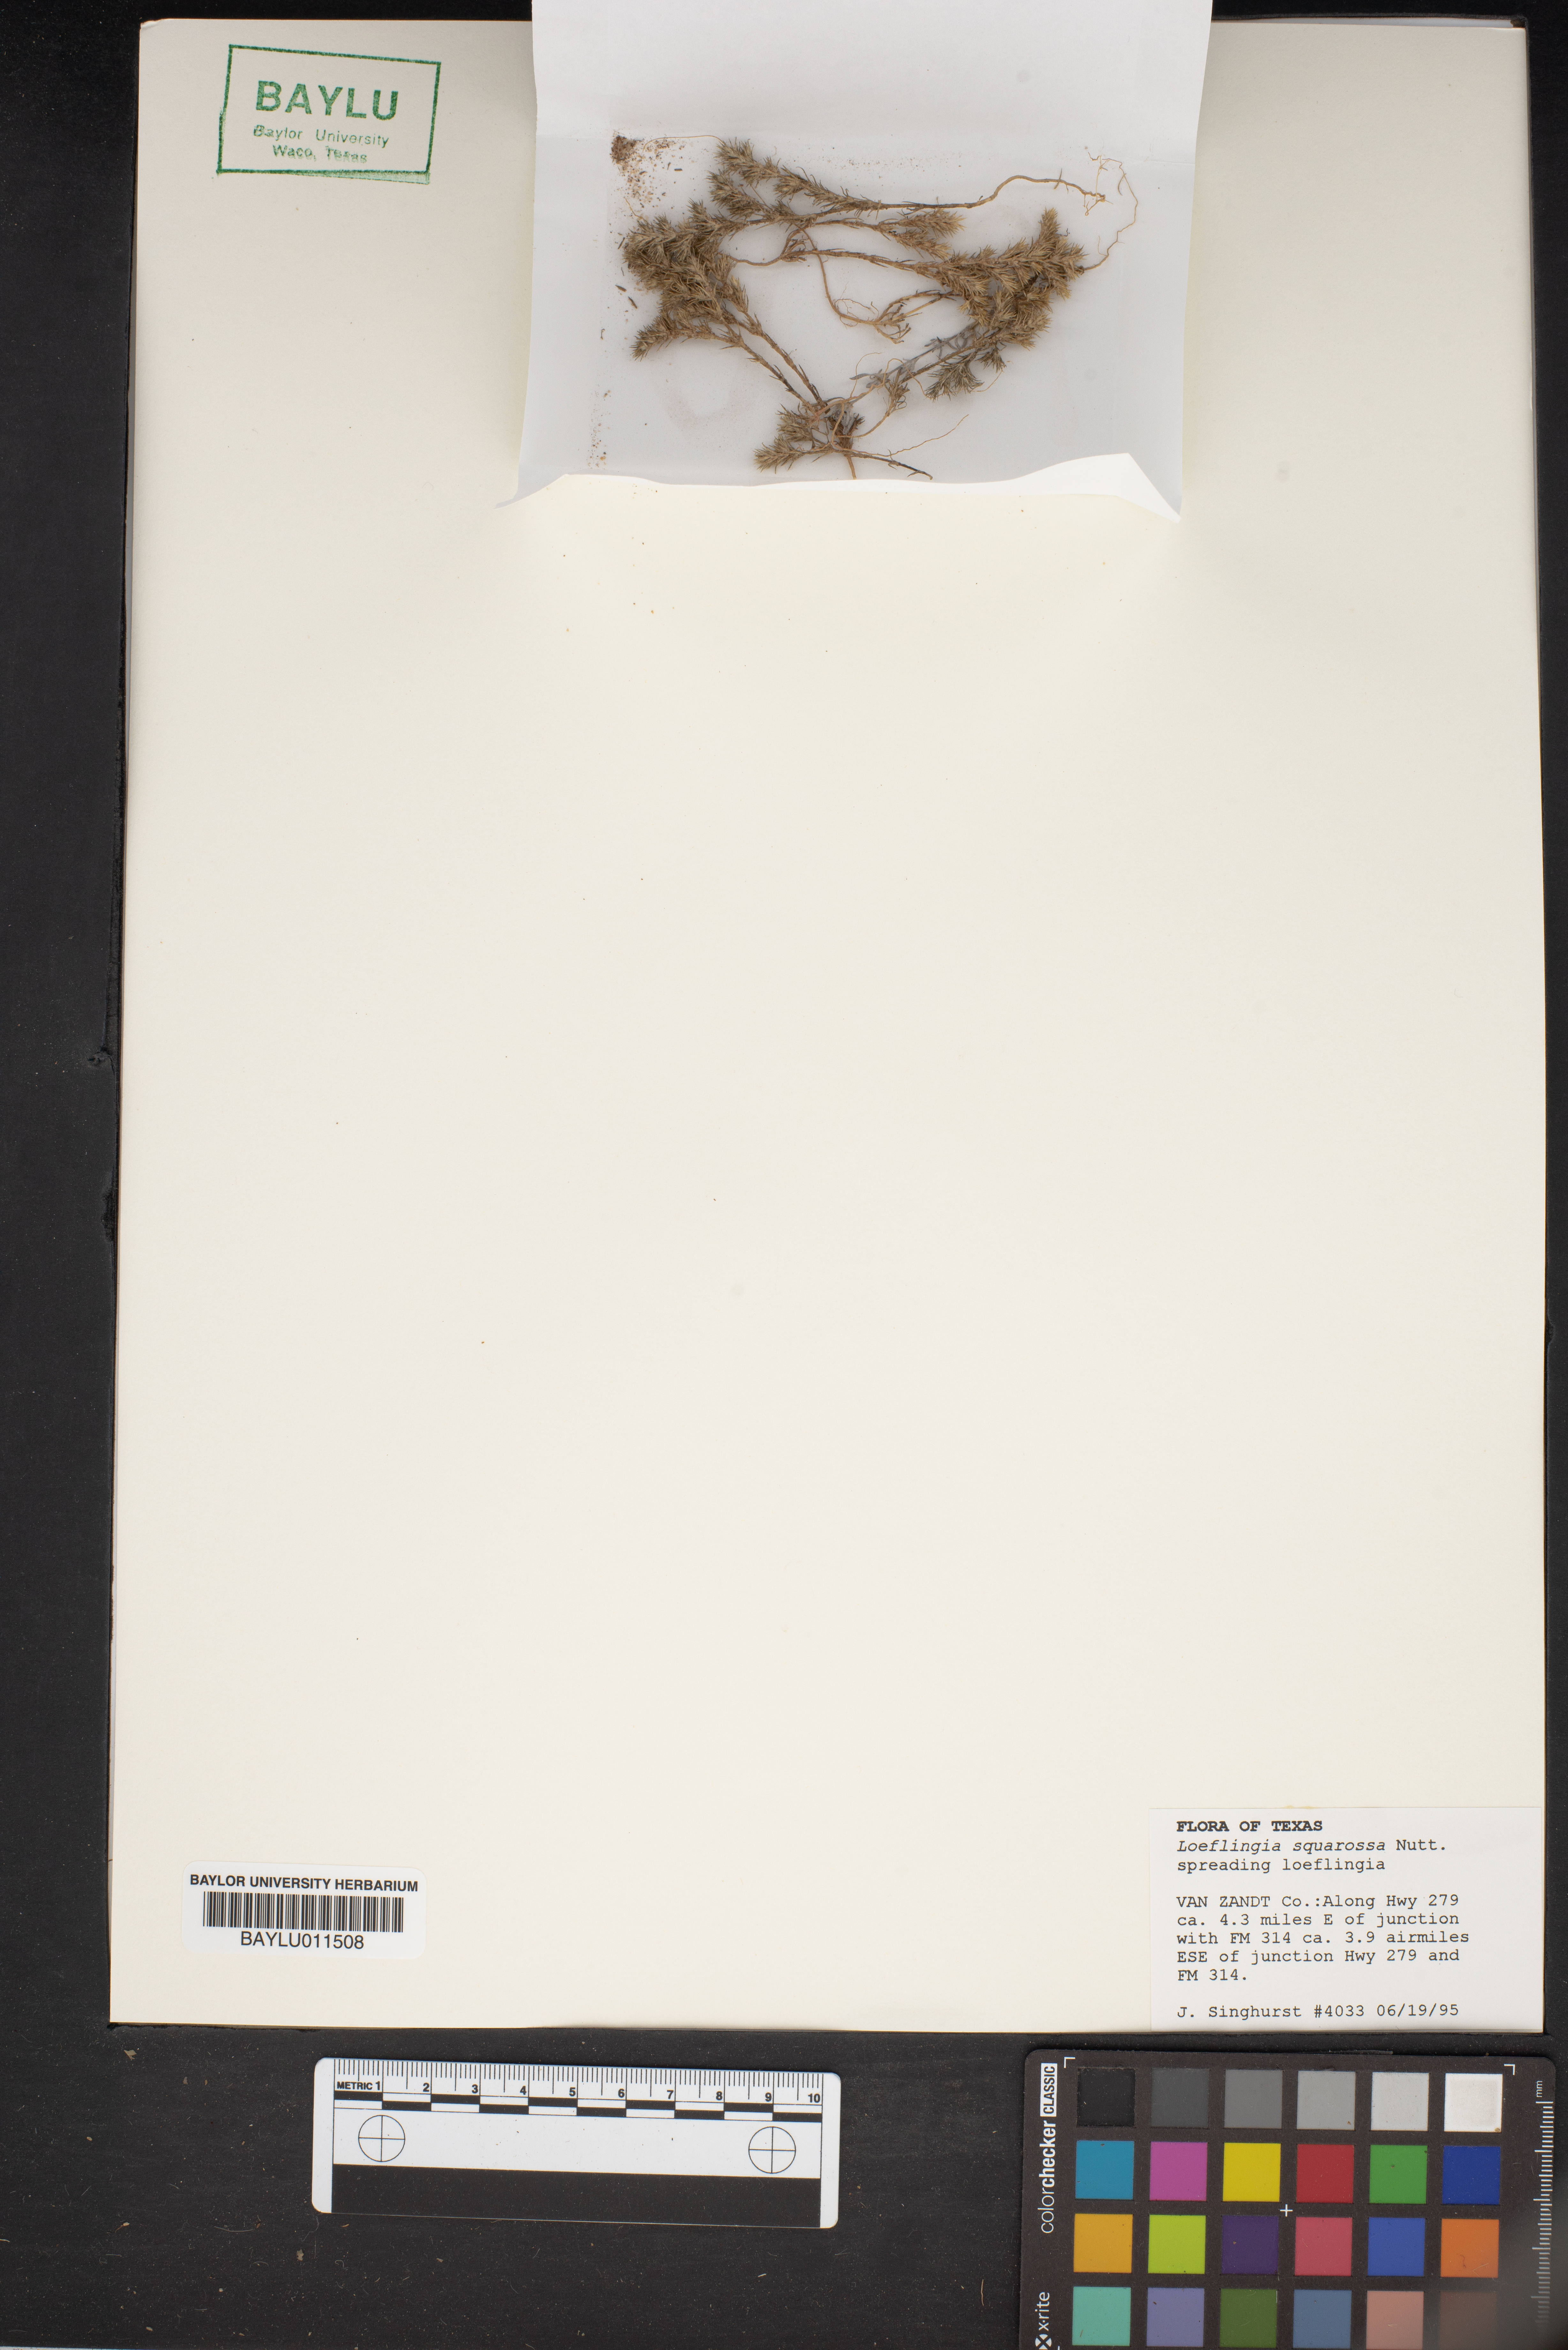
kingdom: Plantae
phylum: Tracheophyta
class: Magnoliopsida
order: Caryophyllales
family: Caryophyllaceae
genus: Loeflingia
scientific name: Loeflingia squarrosa
